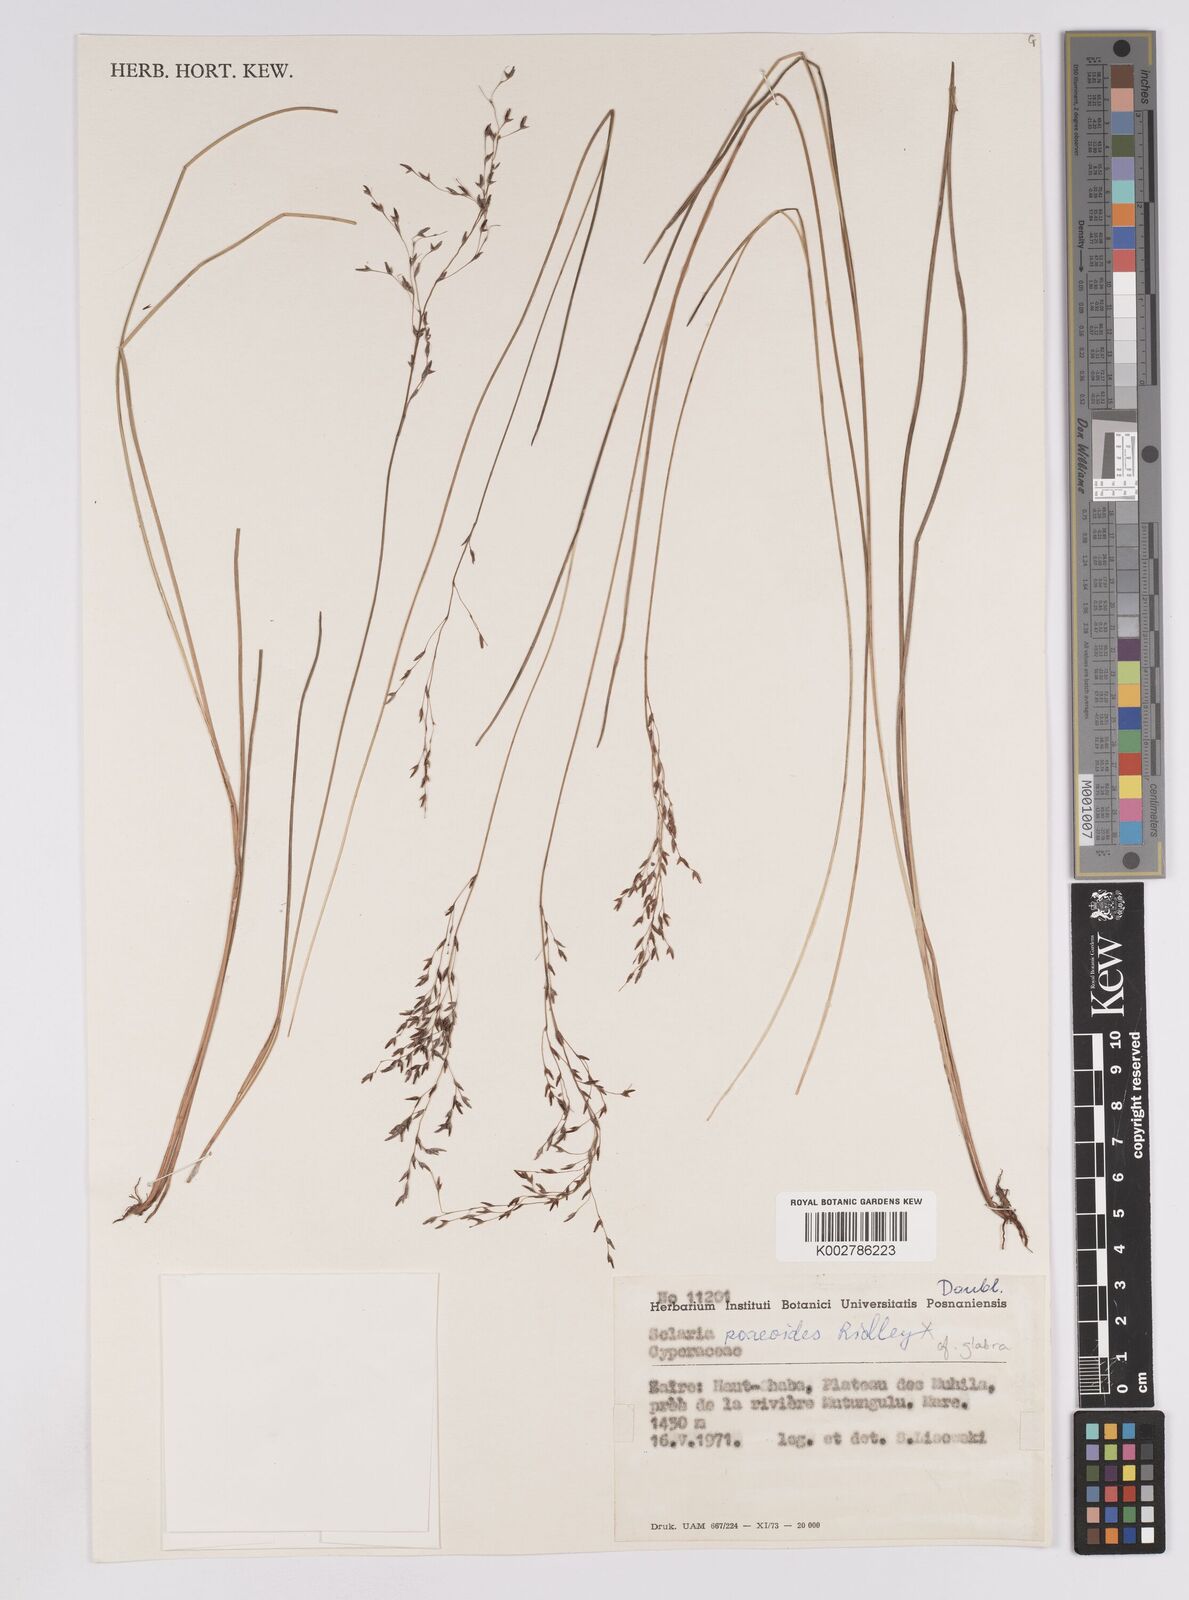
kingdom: Plantae
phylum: Tracheophyta
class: Liliopsida
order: Poales
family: Cyperaceae
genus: Scleria
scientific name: Scleria glabra
